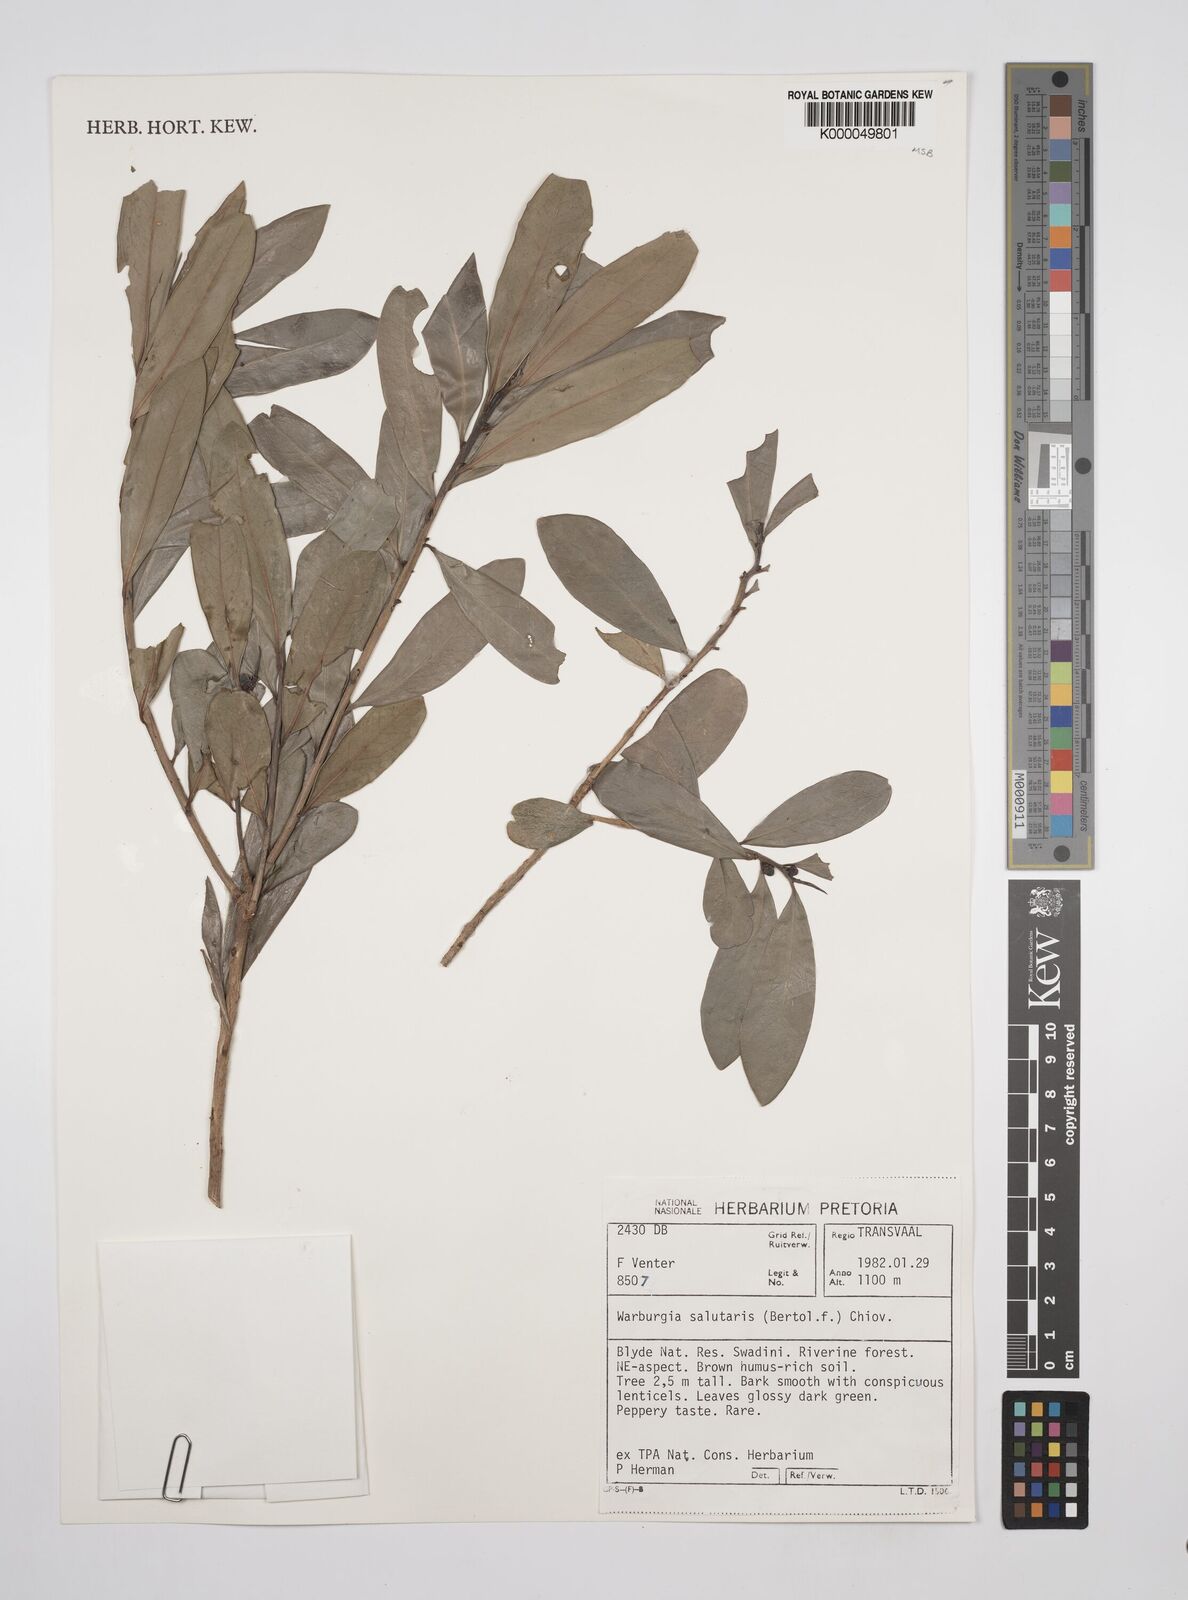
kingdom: Plantae
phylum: Tracheophyta
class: Magnoliopsida
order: Canellales
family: Canellaceae
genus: Warburgia
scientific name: Warburgia salutaris
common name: Pepper bark tree
